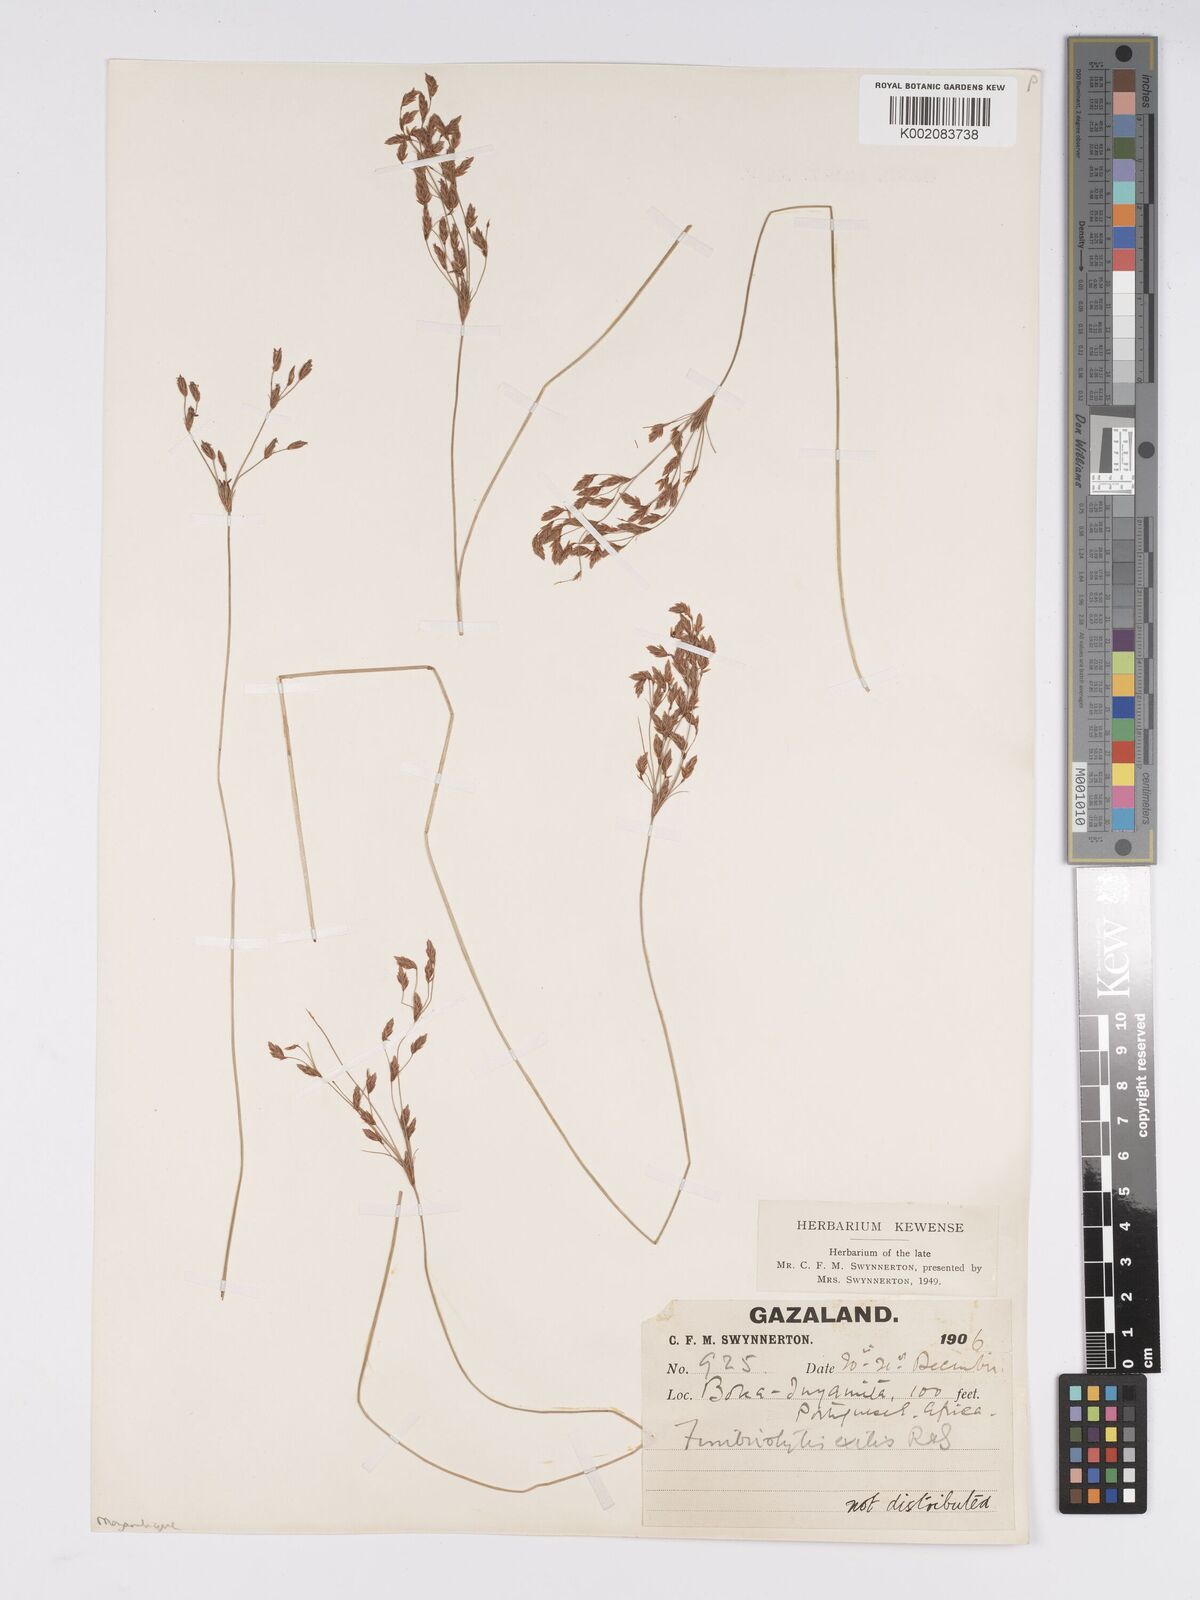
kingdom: Plantae
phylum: Tracheophyta
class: Liliopsida
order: Poales
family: Cyperaceae
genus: Bulbostylis
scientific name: Bulbostylis hispidula
